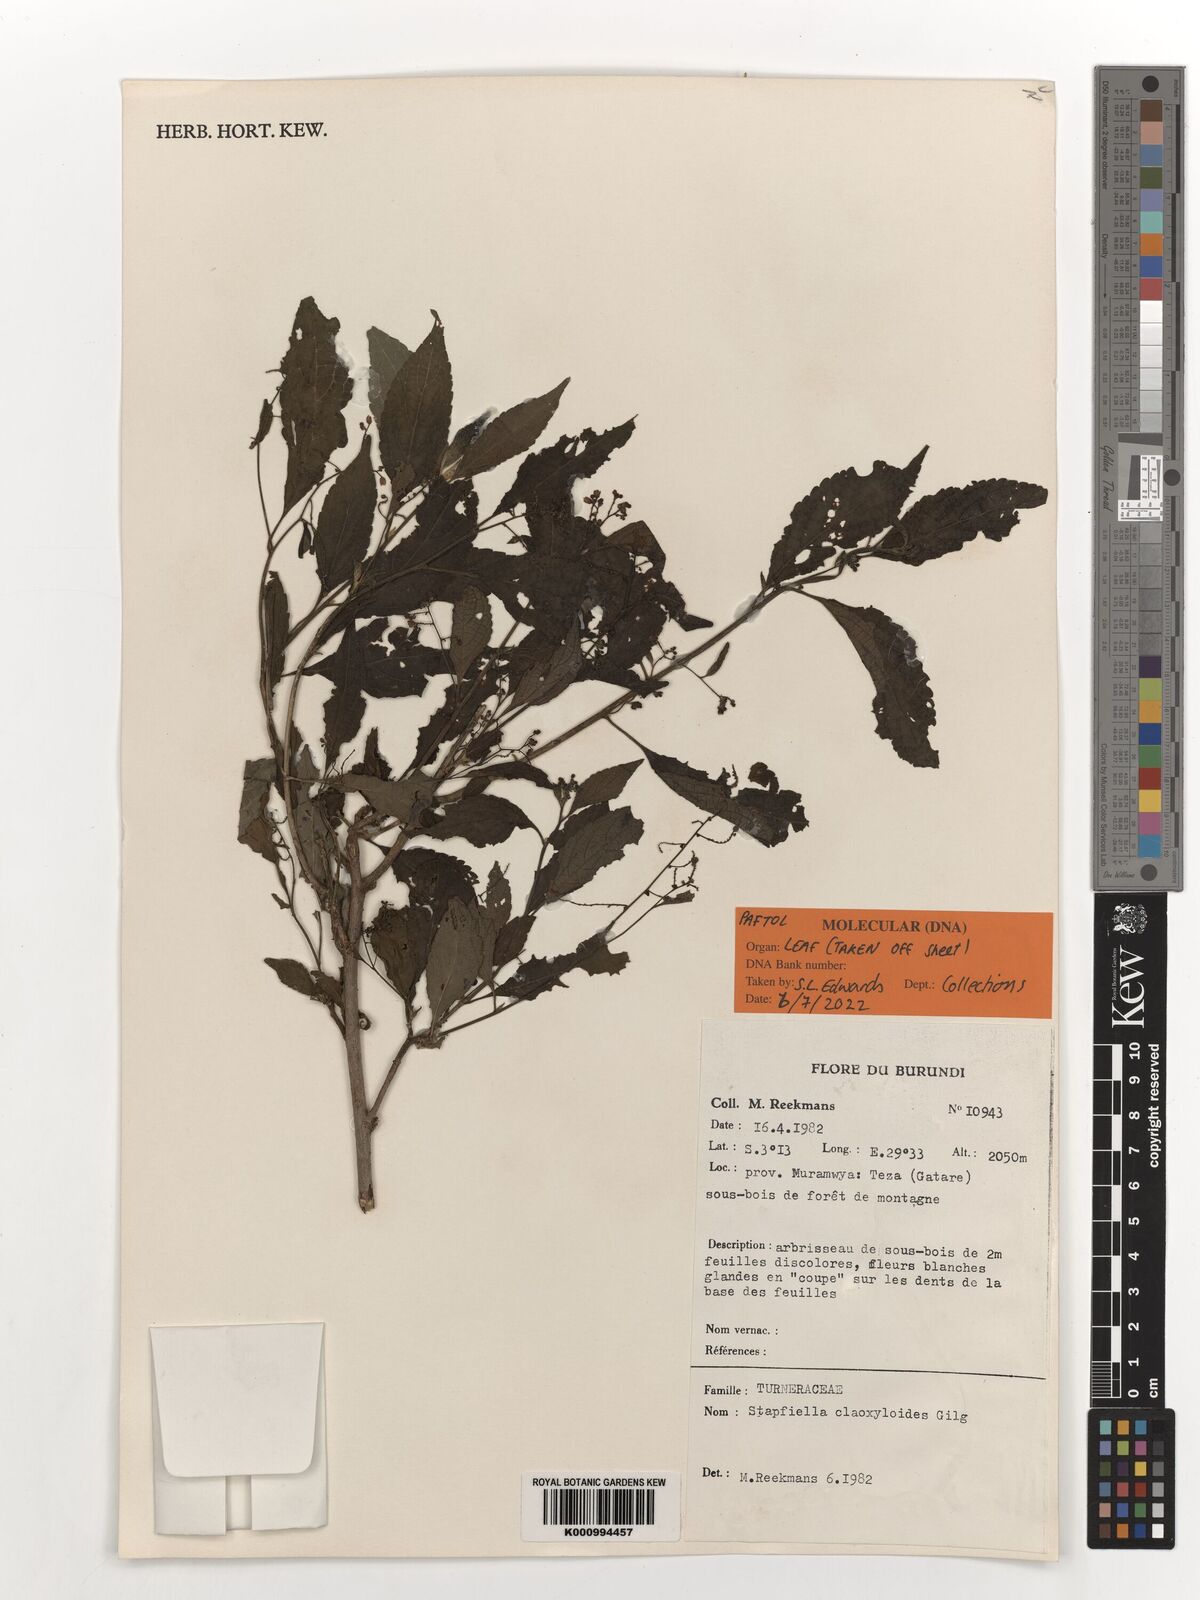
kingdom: Plantae
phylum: Tracheophyta
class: Magnoliopsida
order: Malpighiales
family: Turneraceae
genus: Stapfiella
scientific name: Stapfiella claoxyloides
